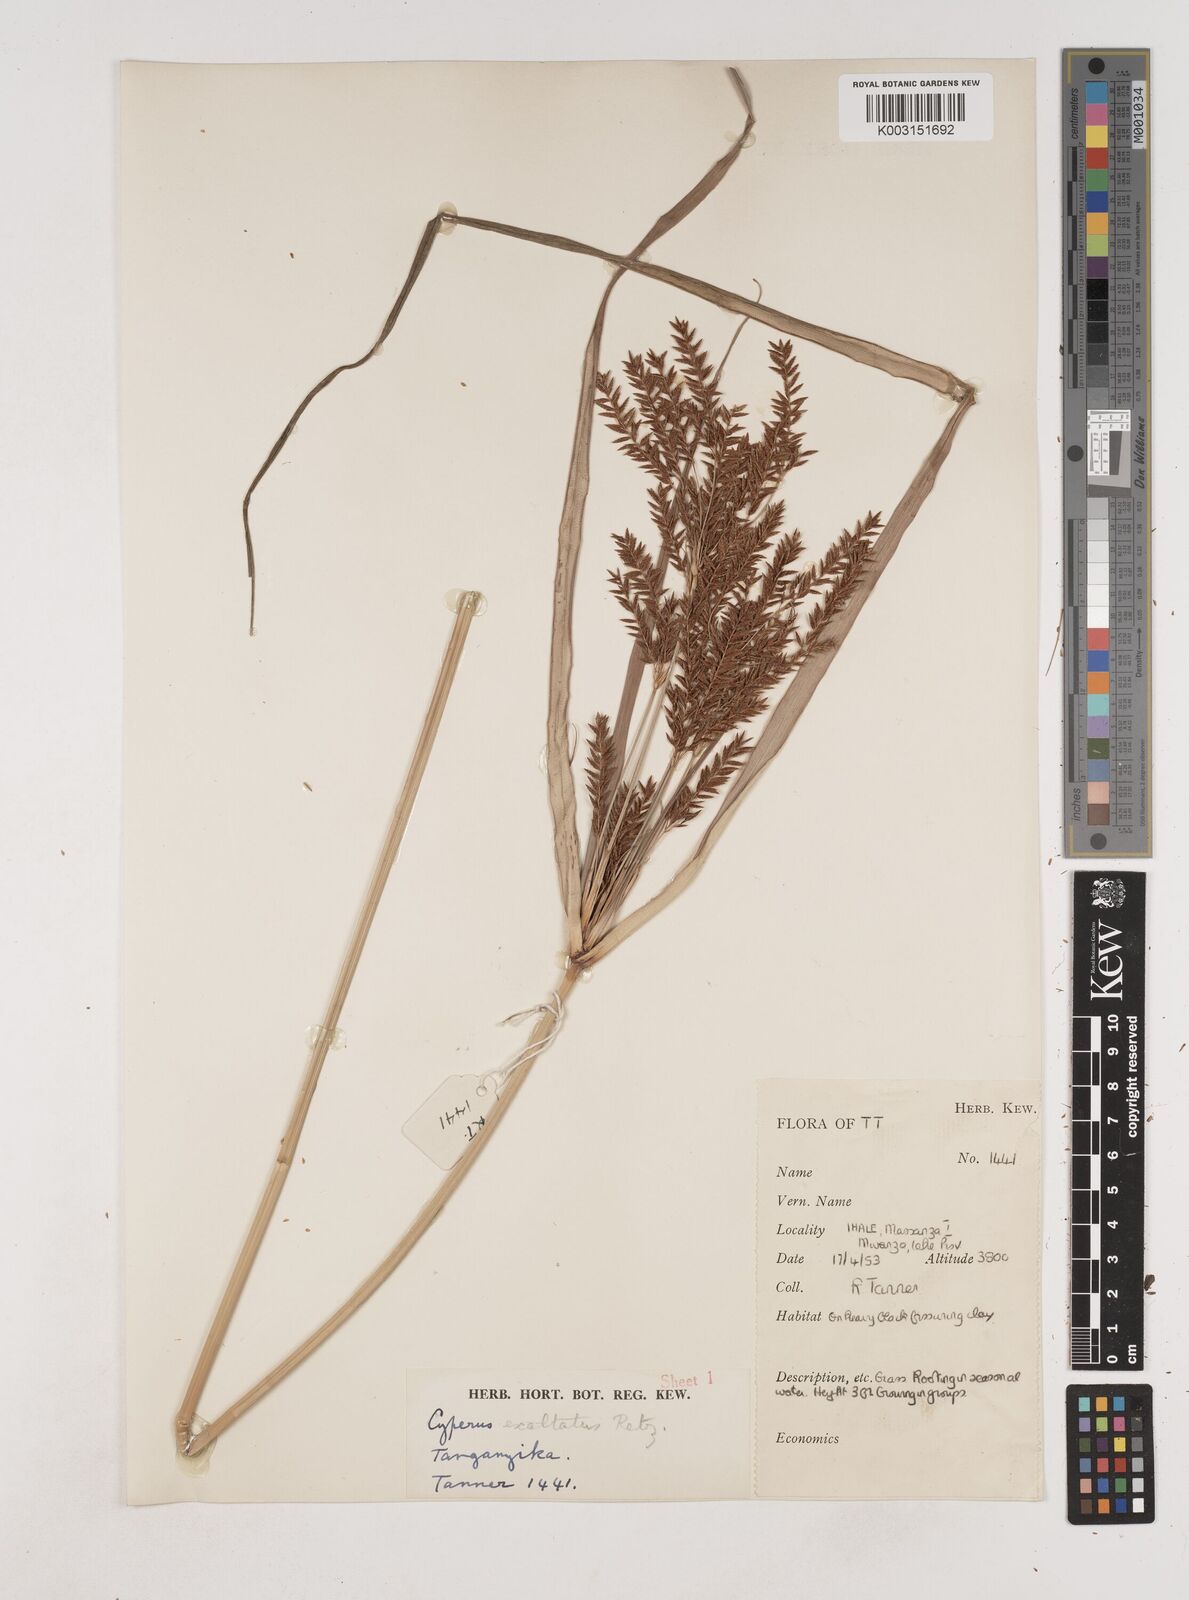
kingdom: Plantae
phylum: Tracheophyta
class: Liliopsida
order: Poales
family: Cyperaceae
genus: Cyperus
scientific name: Cyperus exaltatus
